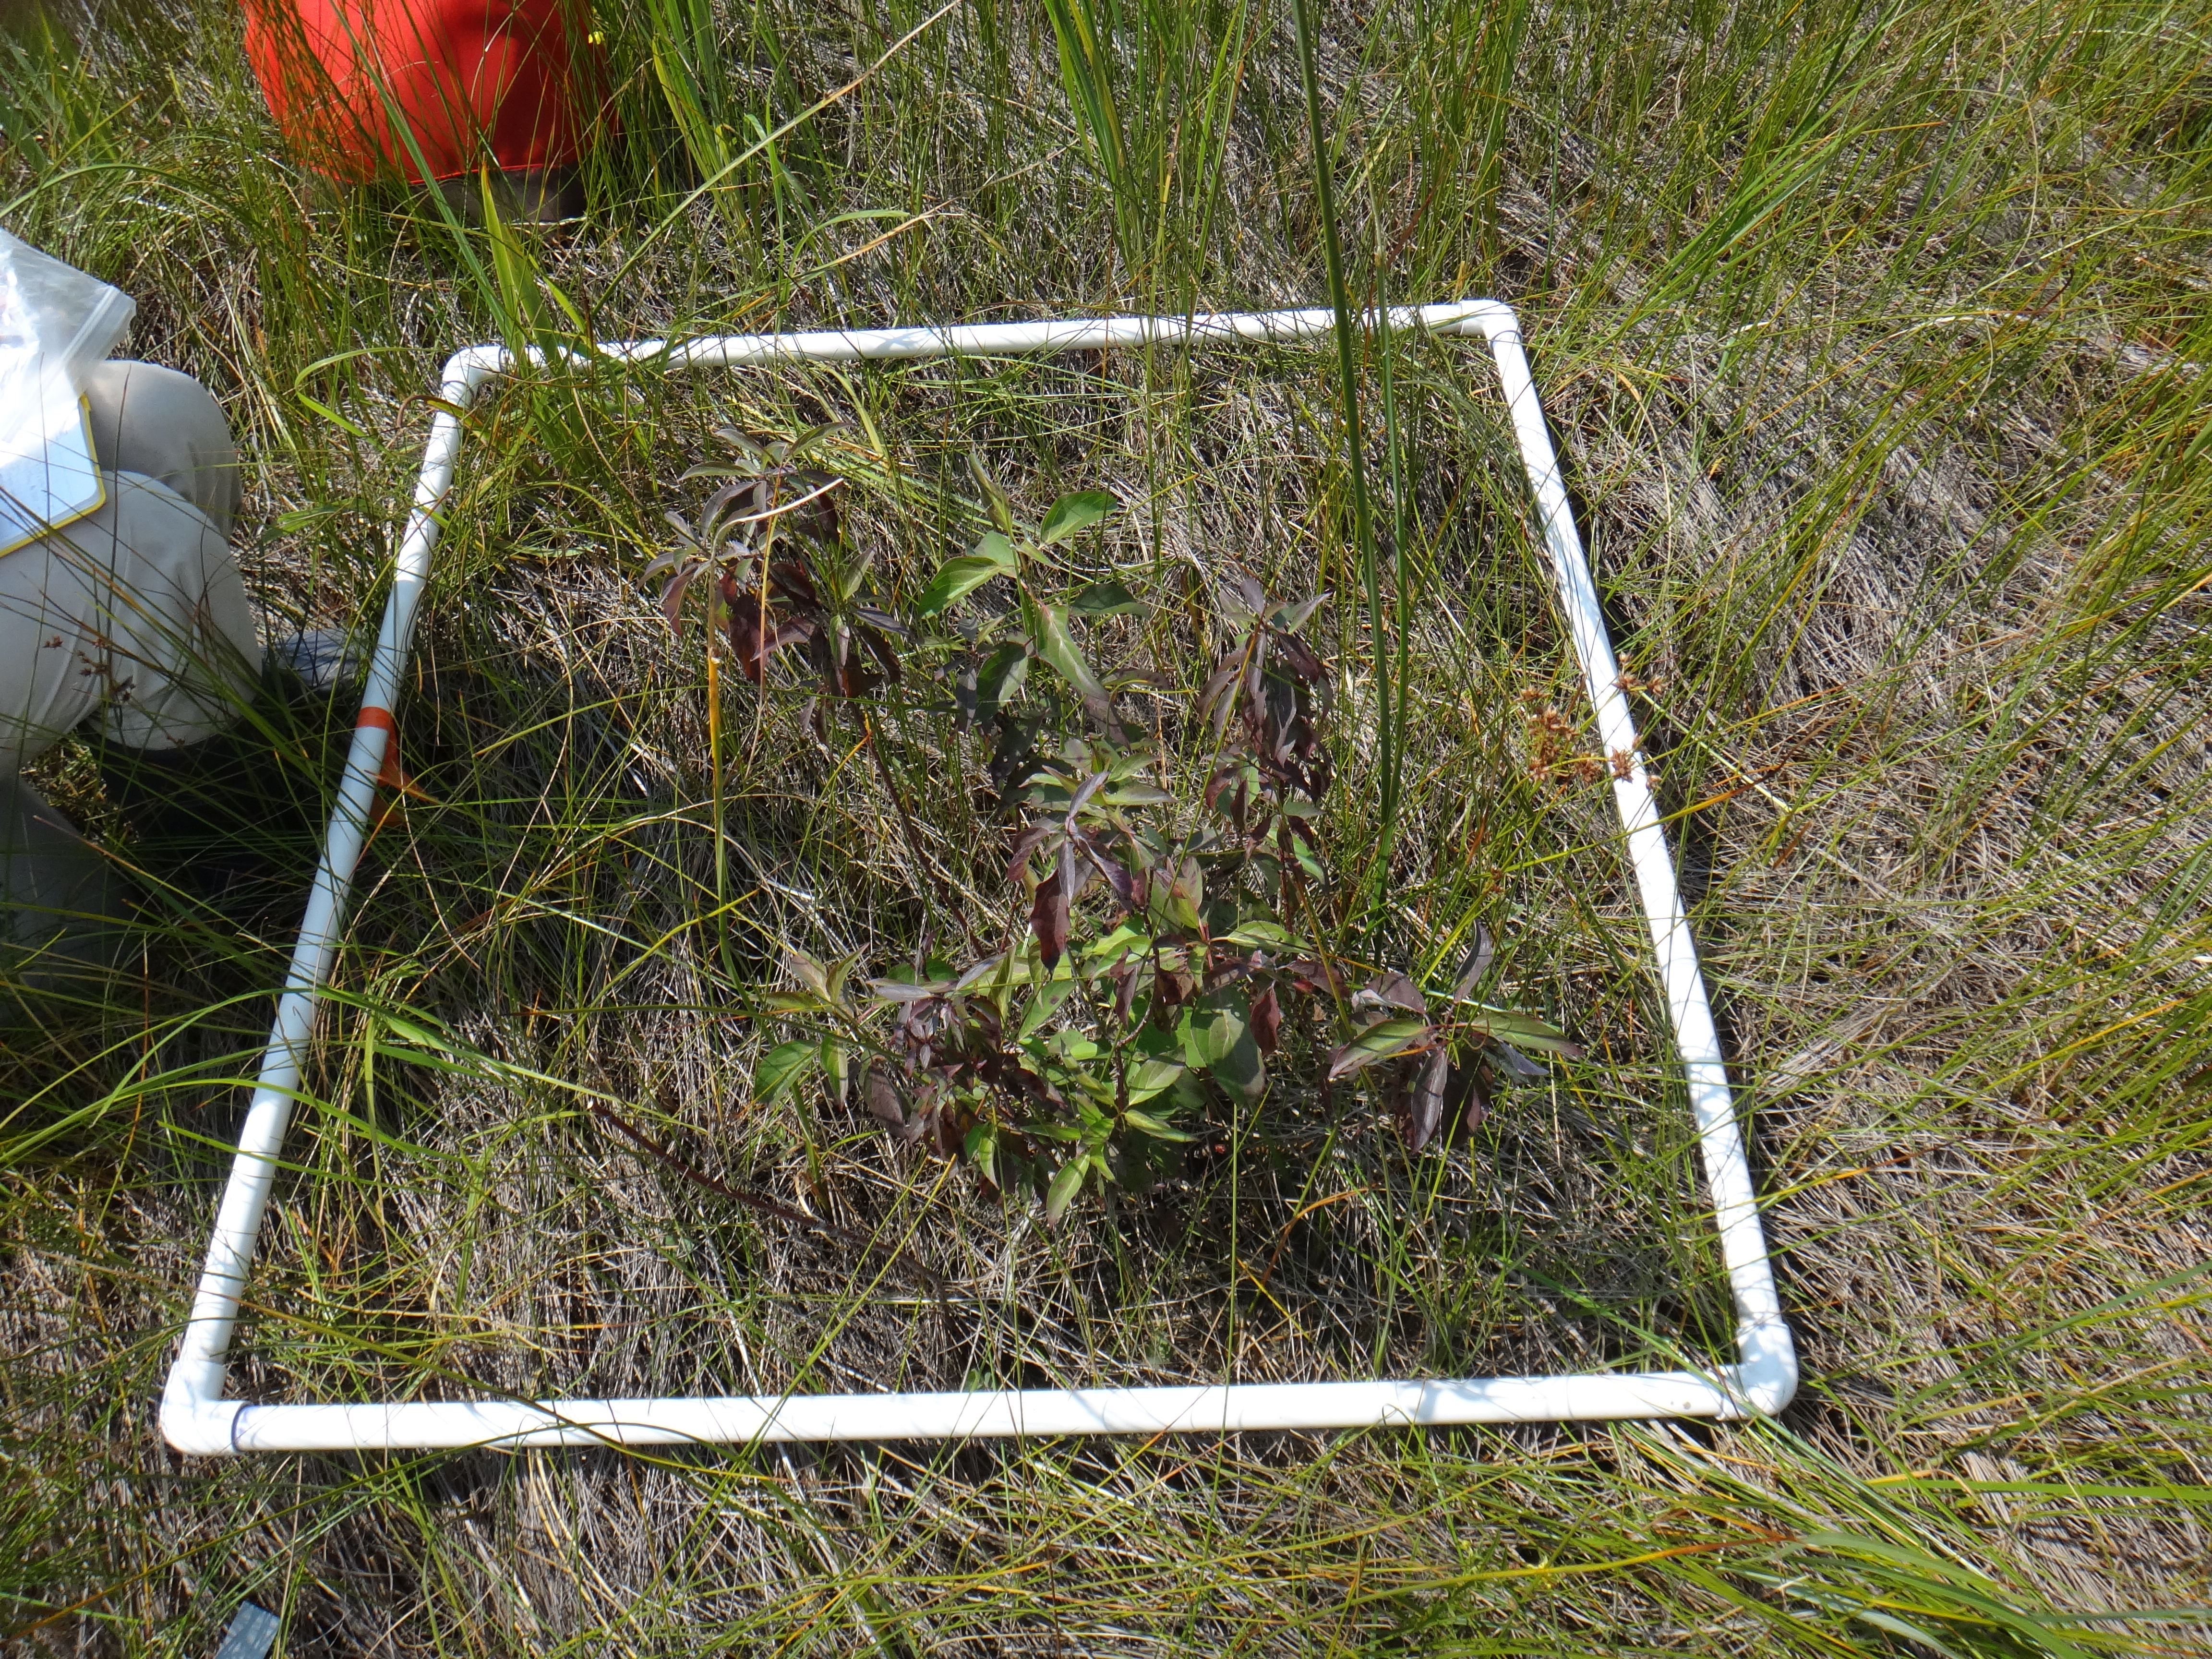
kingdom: Plantae
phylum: Tracheophyta
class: Liliopsida
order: Asparagales
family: Iridaceae
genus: Iris
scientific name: Iris virginica
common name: Southern blue flag
